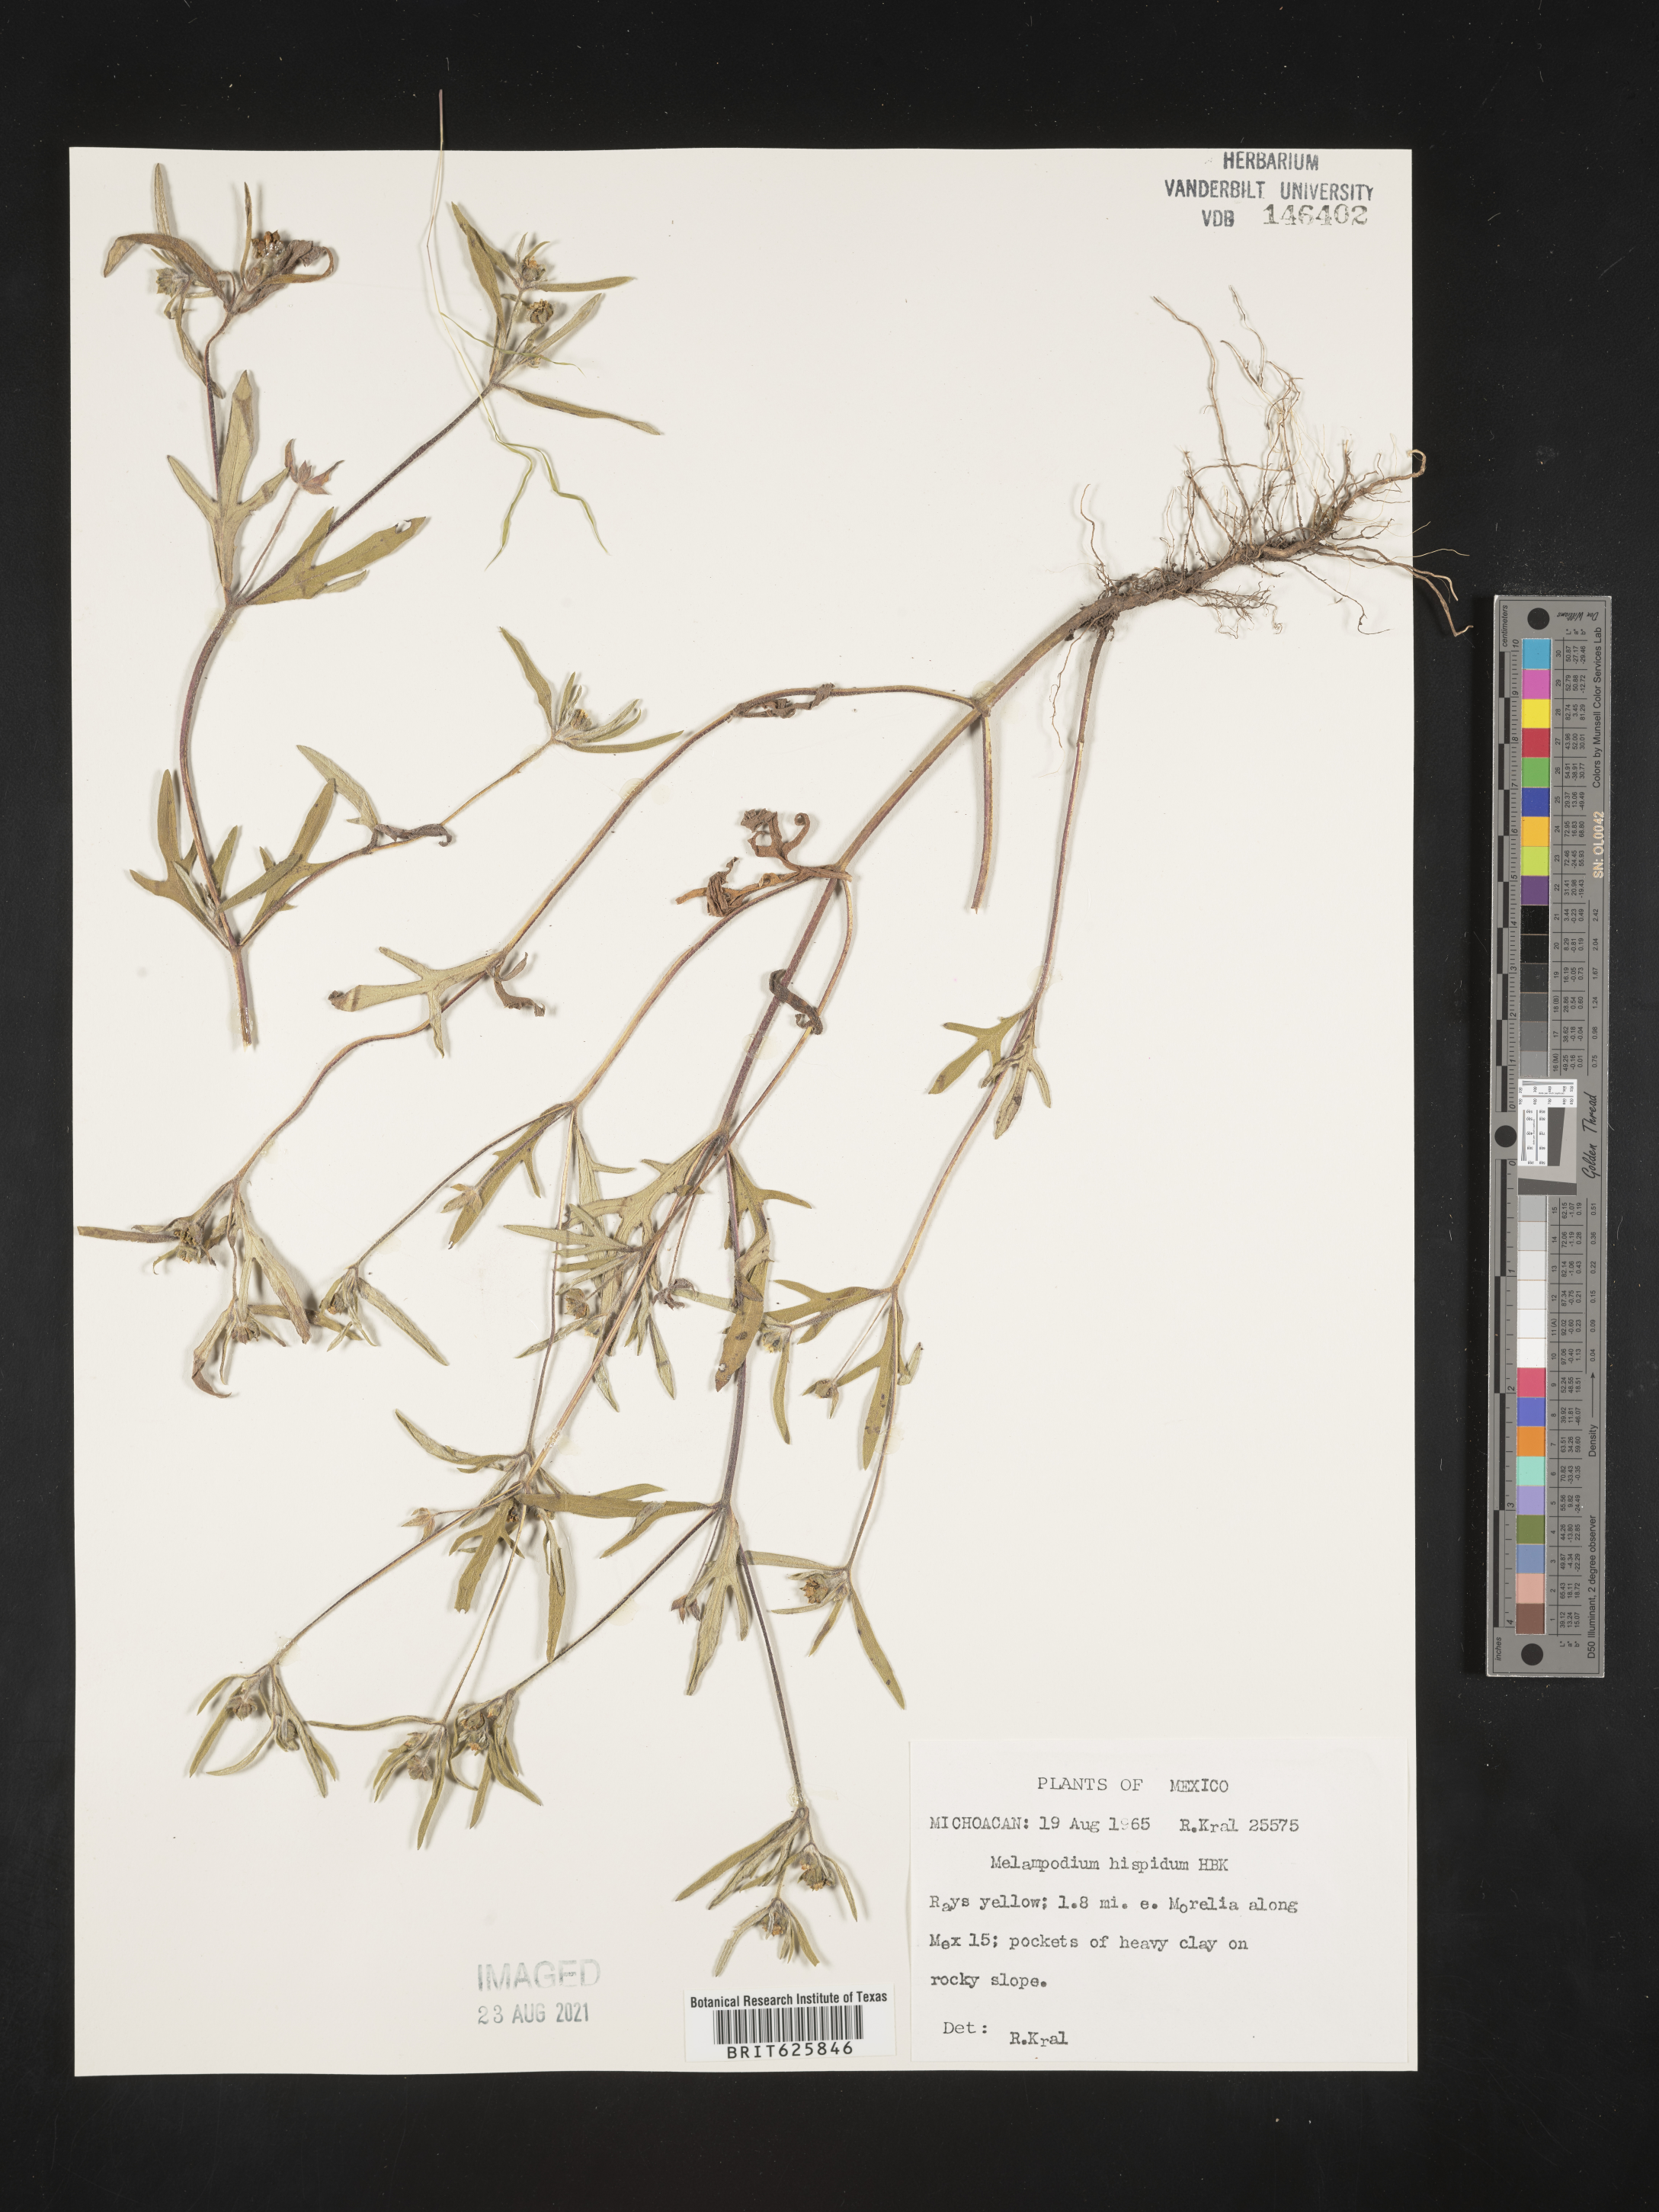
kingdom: Plantae
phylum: Tracheophyta
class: Magnoliopsida
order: Asterales
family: Asteraceae
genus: Melampodium
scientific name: Melampodium
